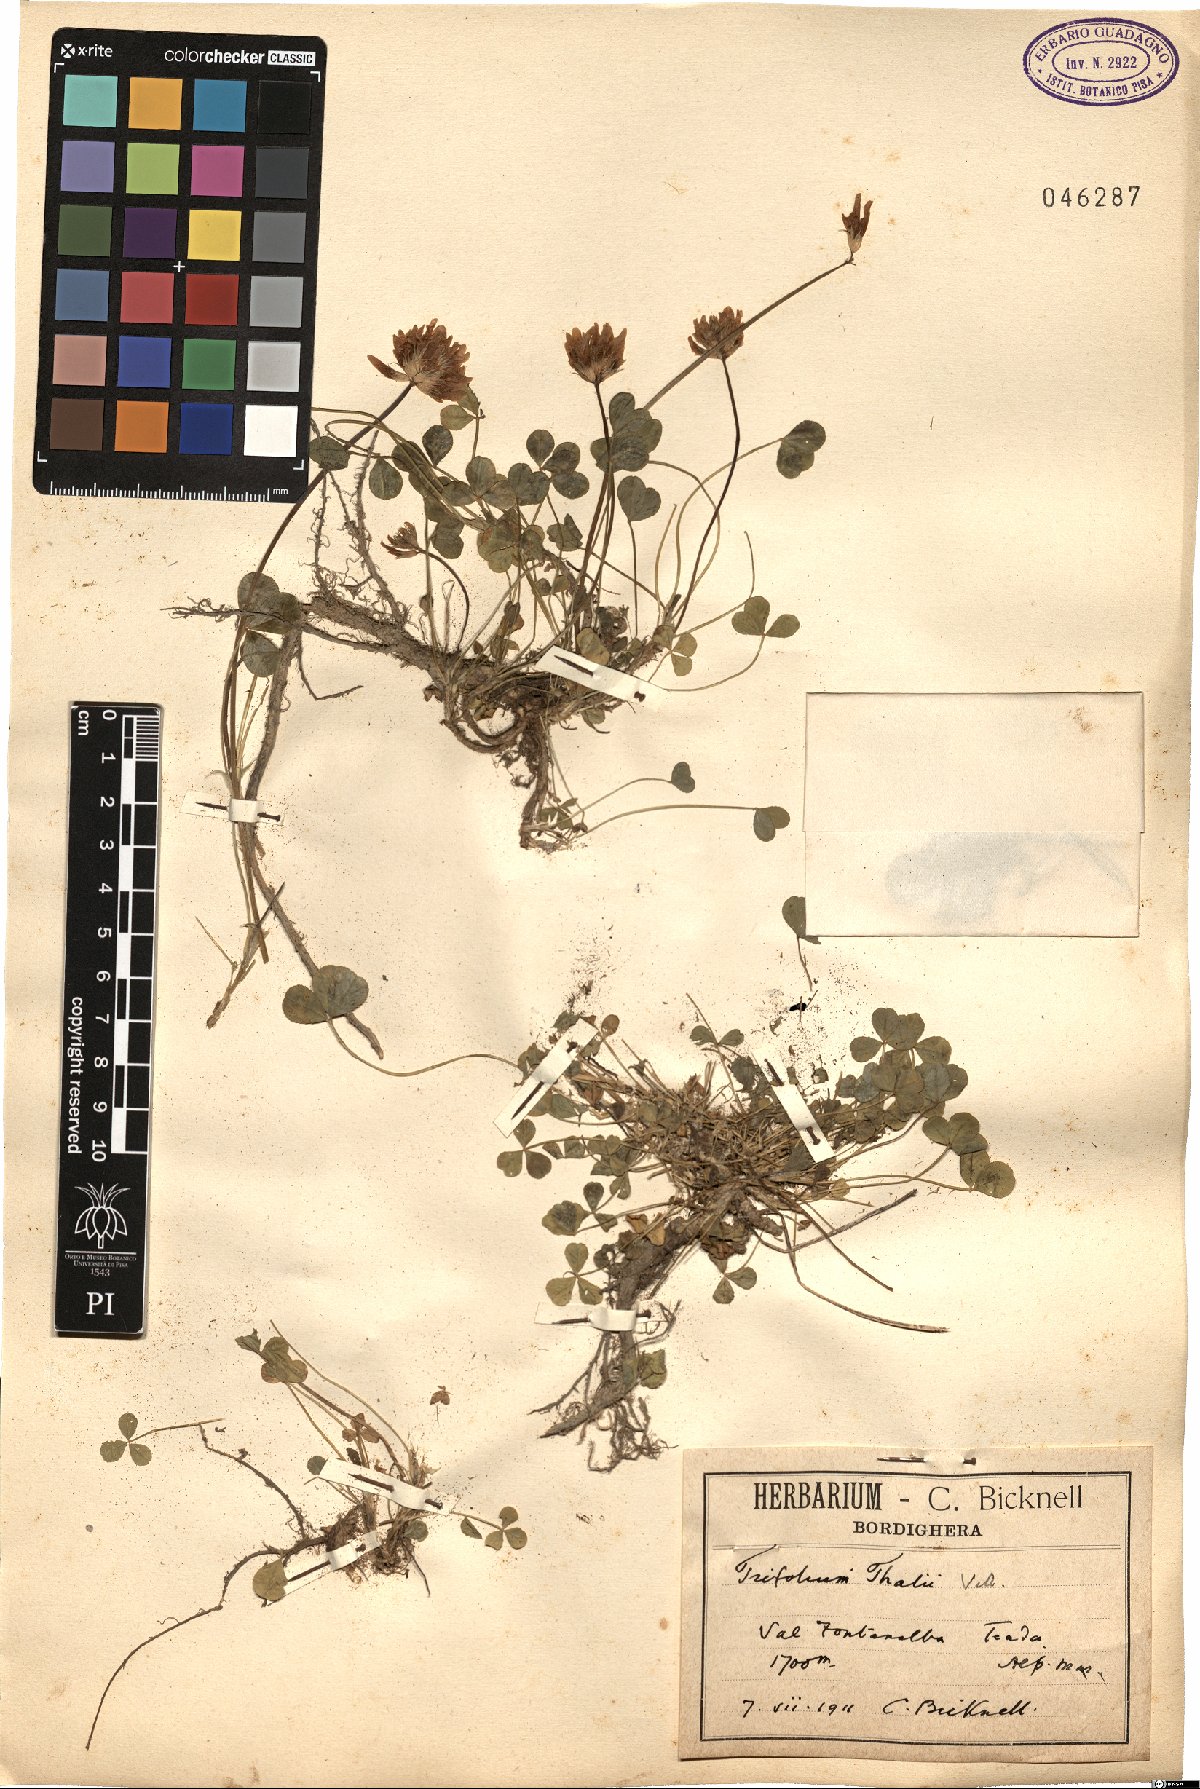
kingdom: Plantae
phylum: Tracheophyta
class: Magnoliopsida
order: Fabales
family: Fabaceae
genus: Trifolium
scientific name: Trifolium thalii
